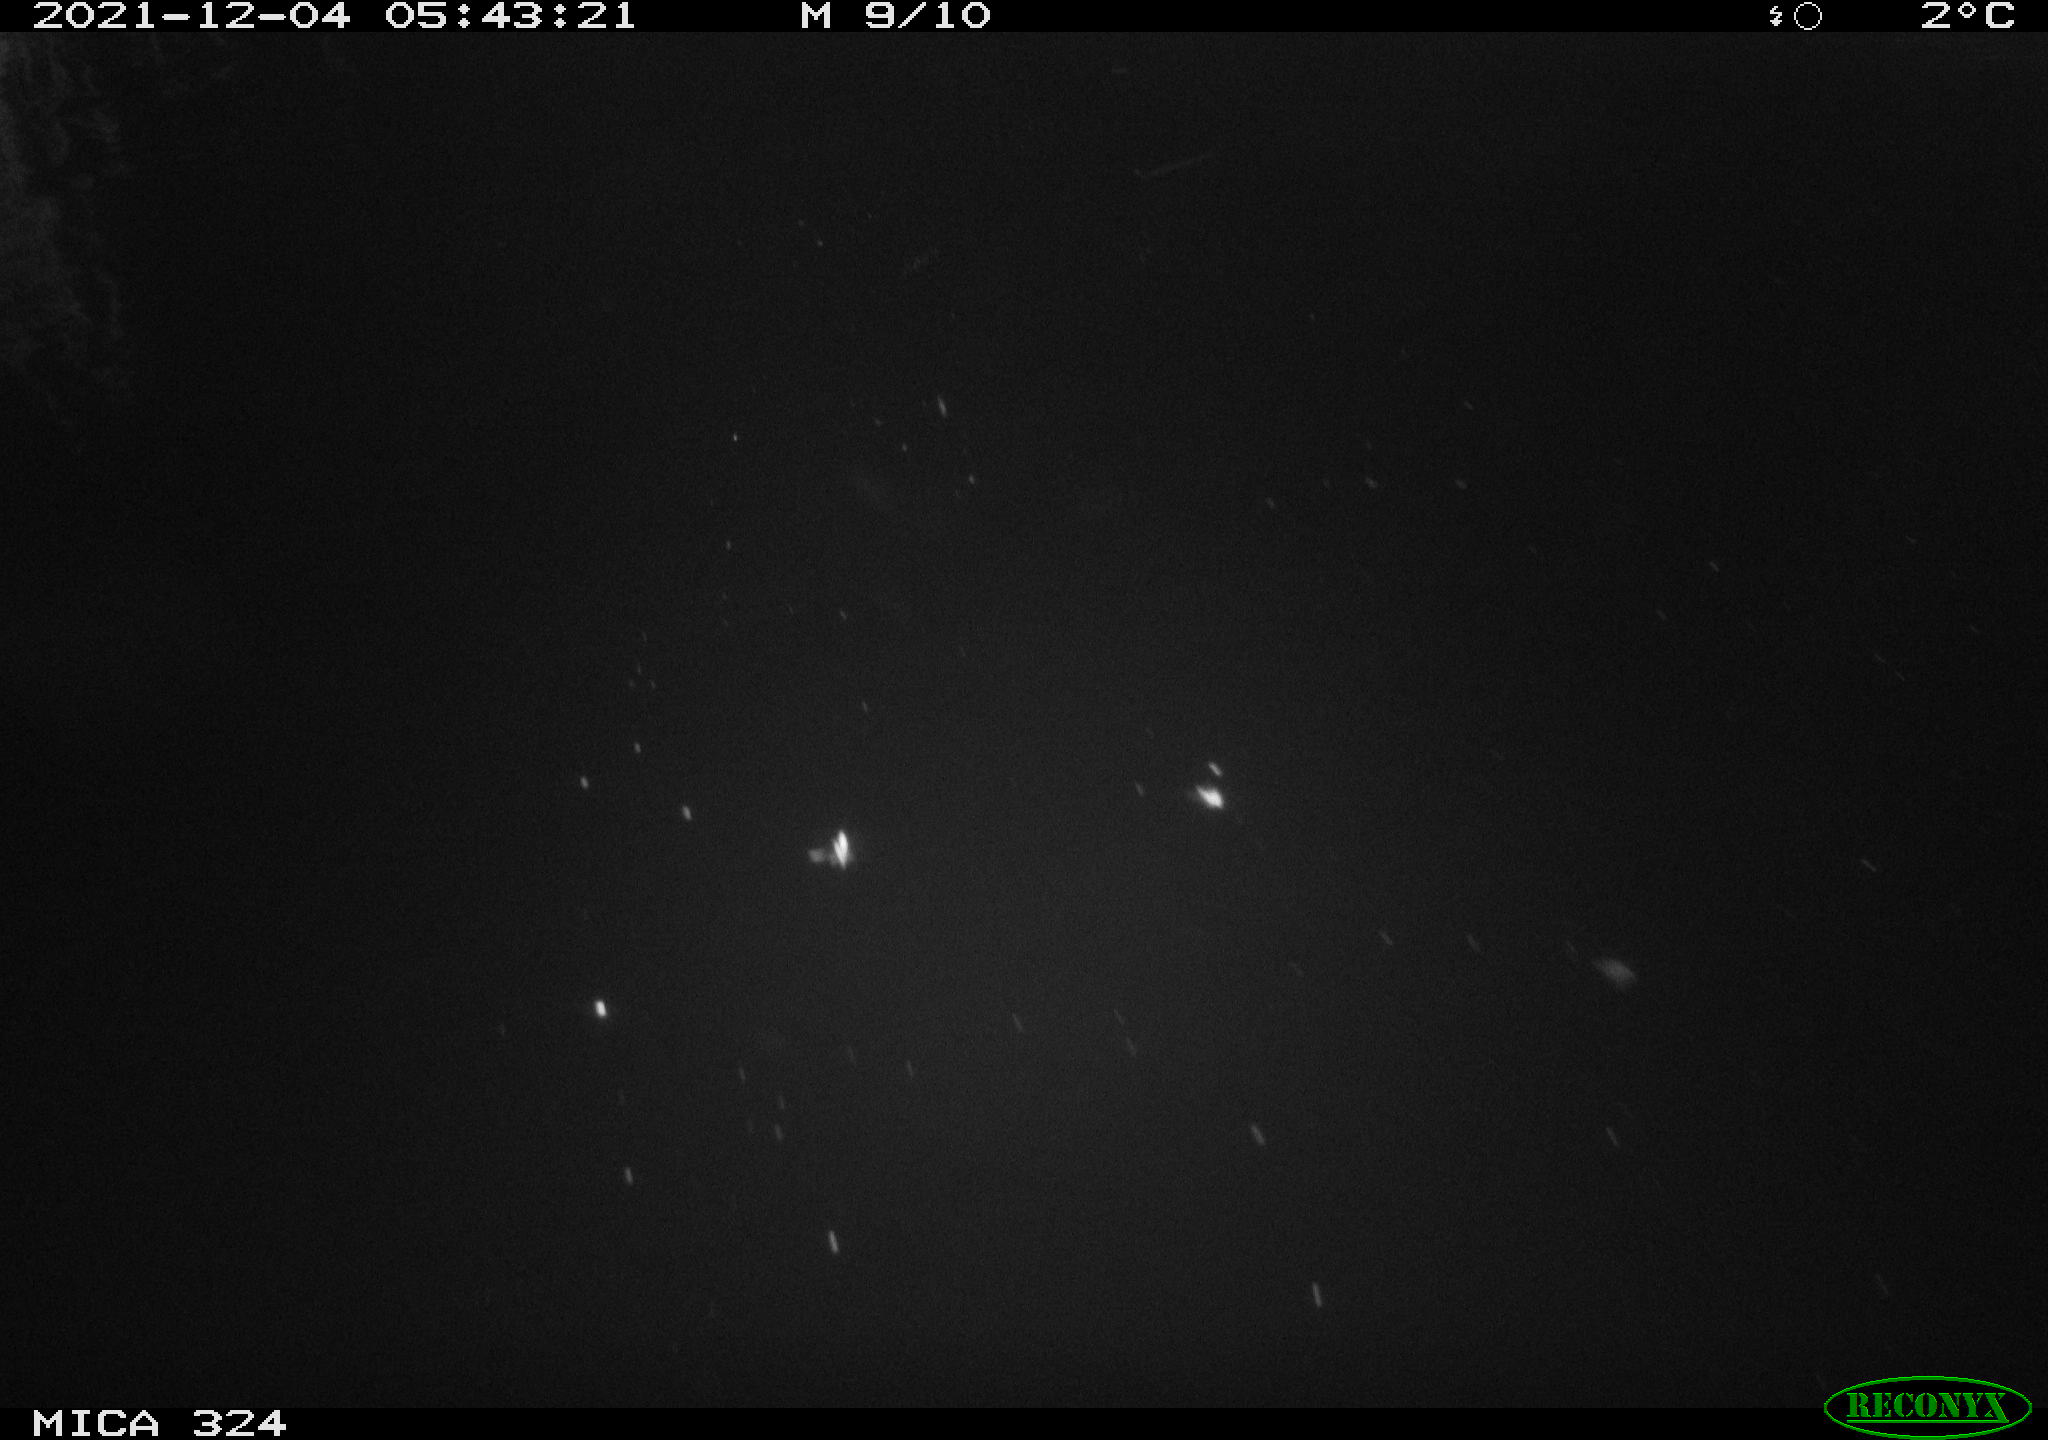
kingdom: Animalia
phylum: Chordata
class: Mammalia
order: Rodentia
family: Cricetidae
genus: Ondatra
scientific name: Ondatra zibethicus
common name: Muskrat
